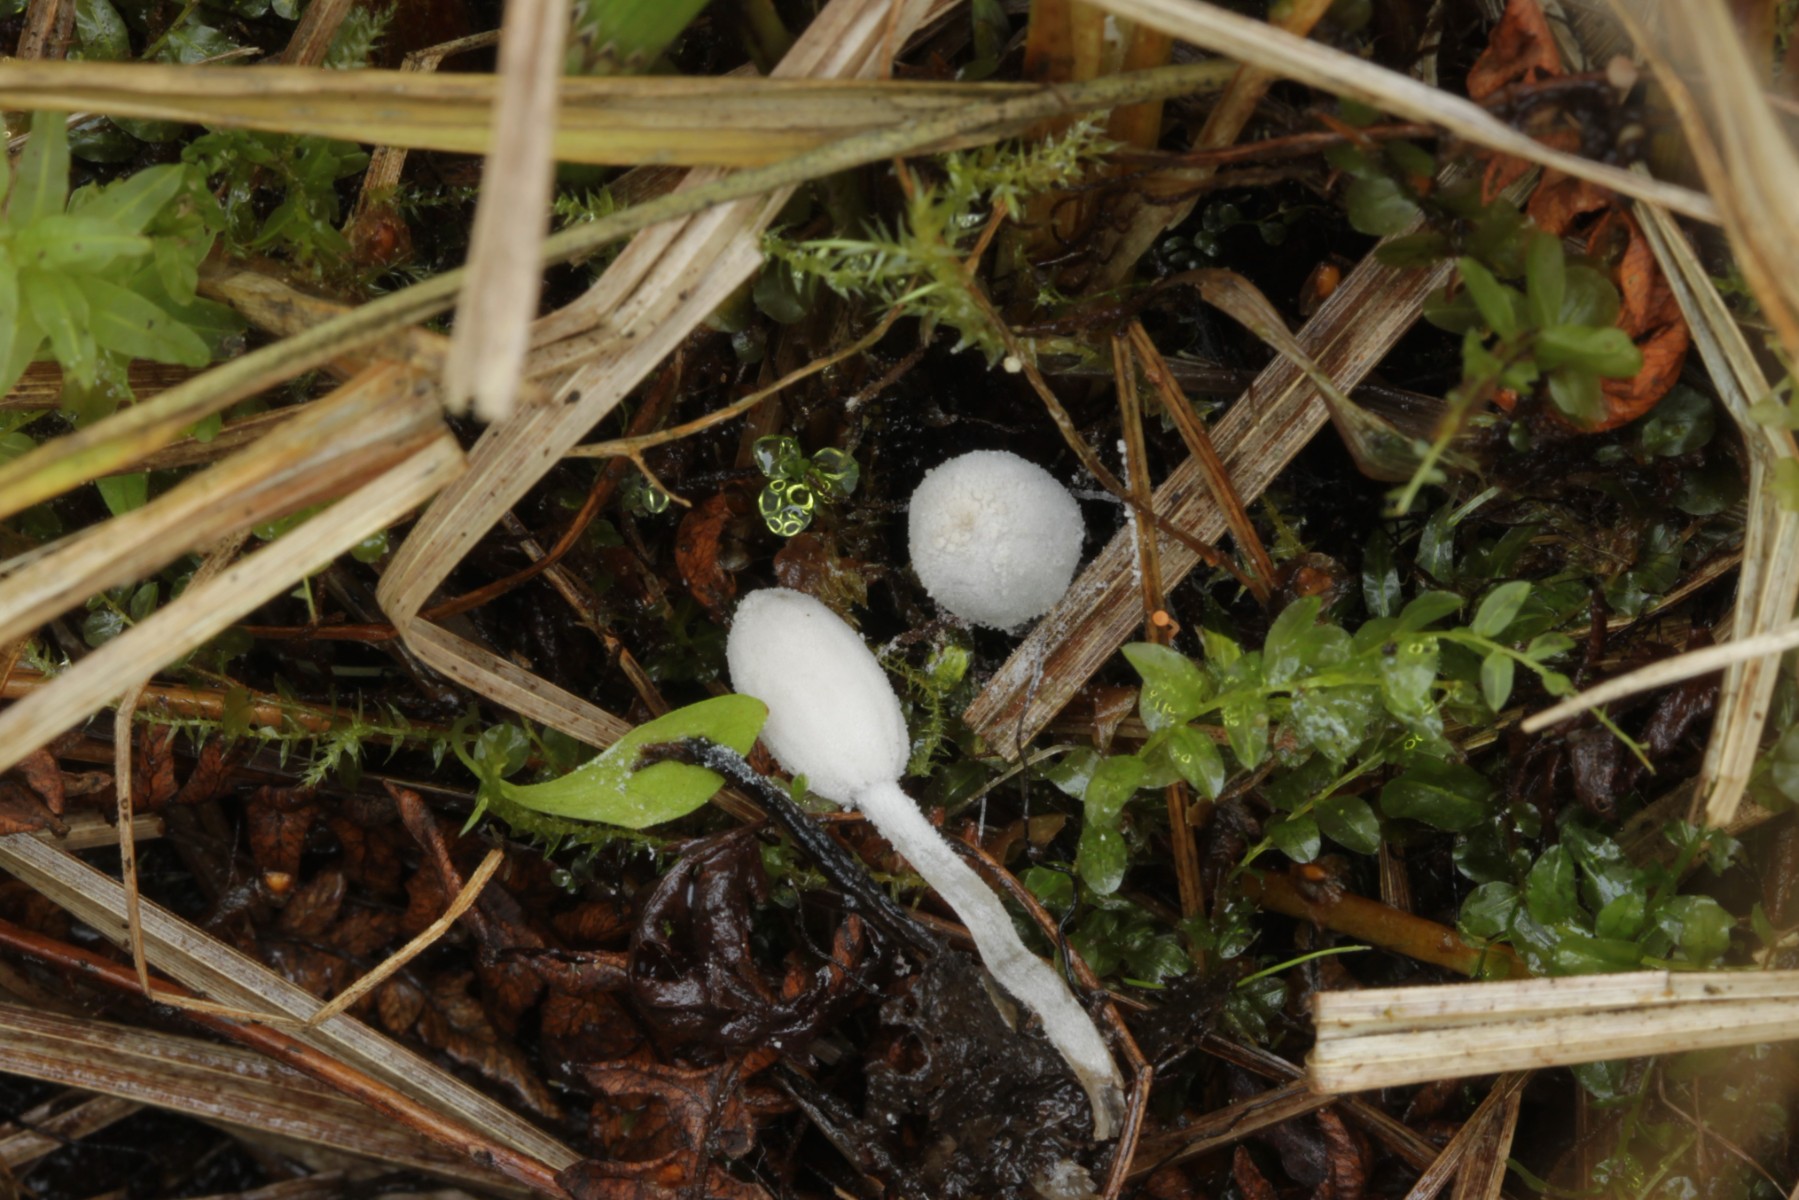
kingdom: Fungi
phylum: Basidiomycota
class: Agaricomycetes
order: Agaricales
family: Psathyrellaceae
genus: Coprinopsis
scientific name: Coprinopsis martinii
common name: rigkær-blækhat
